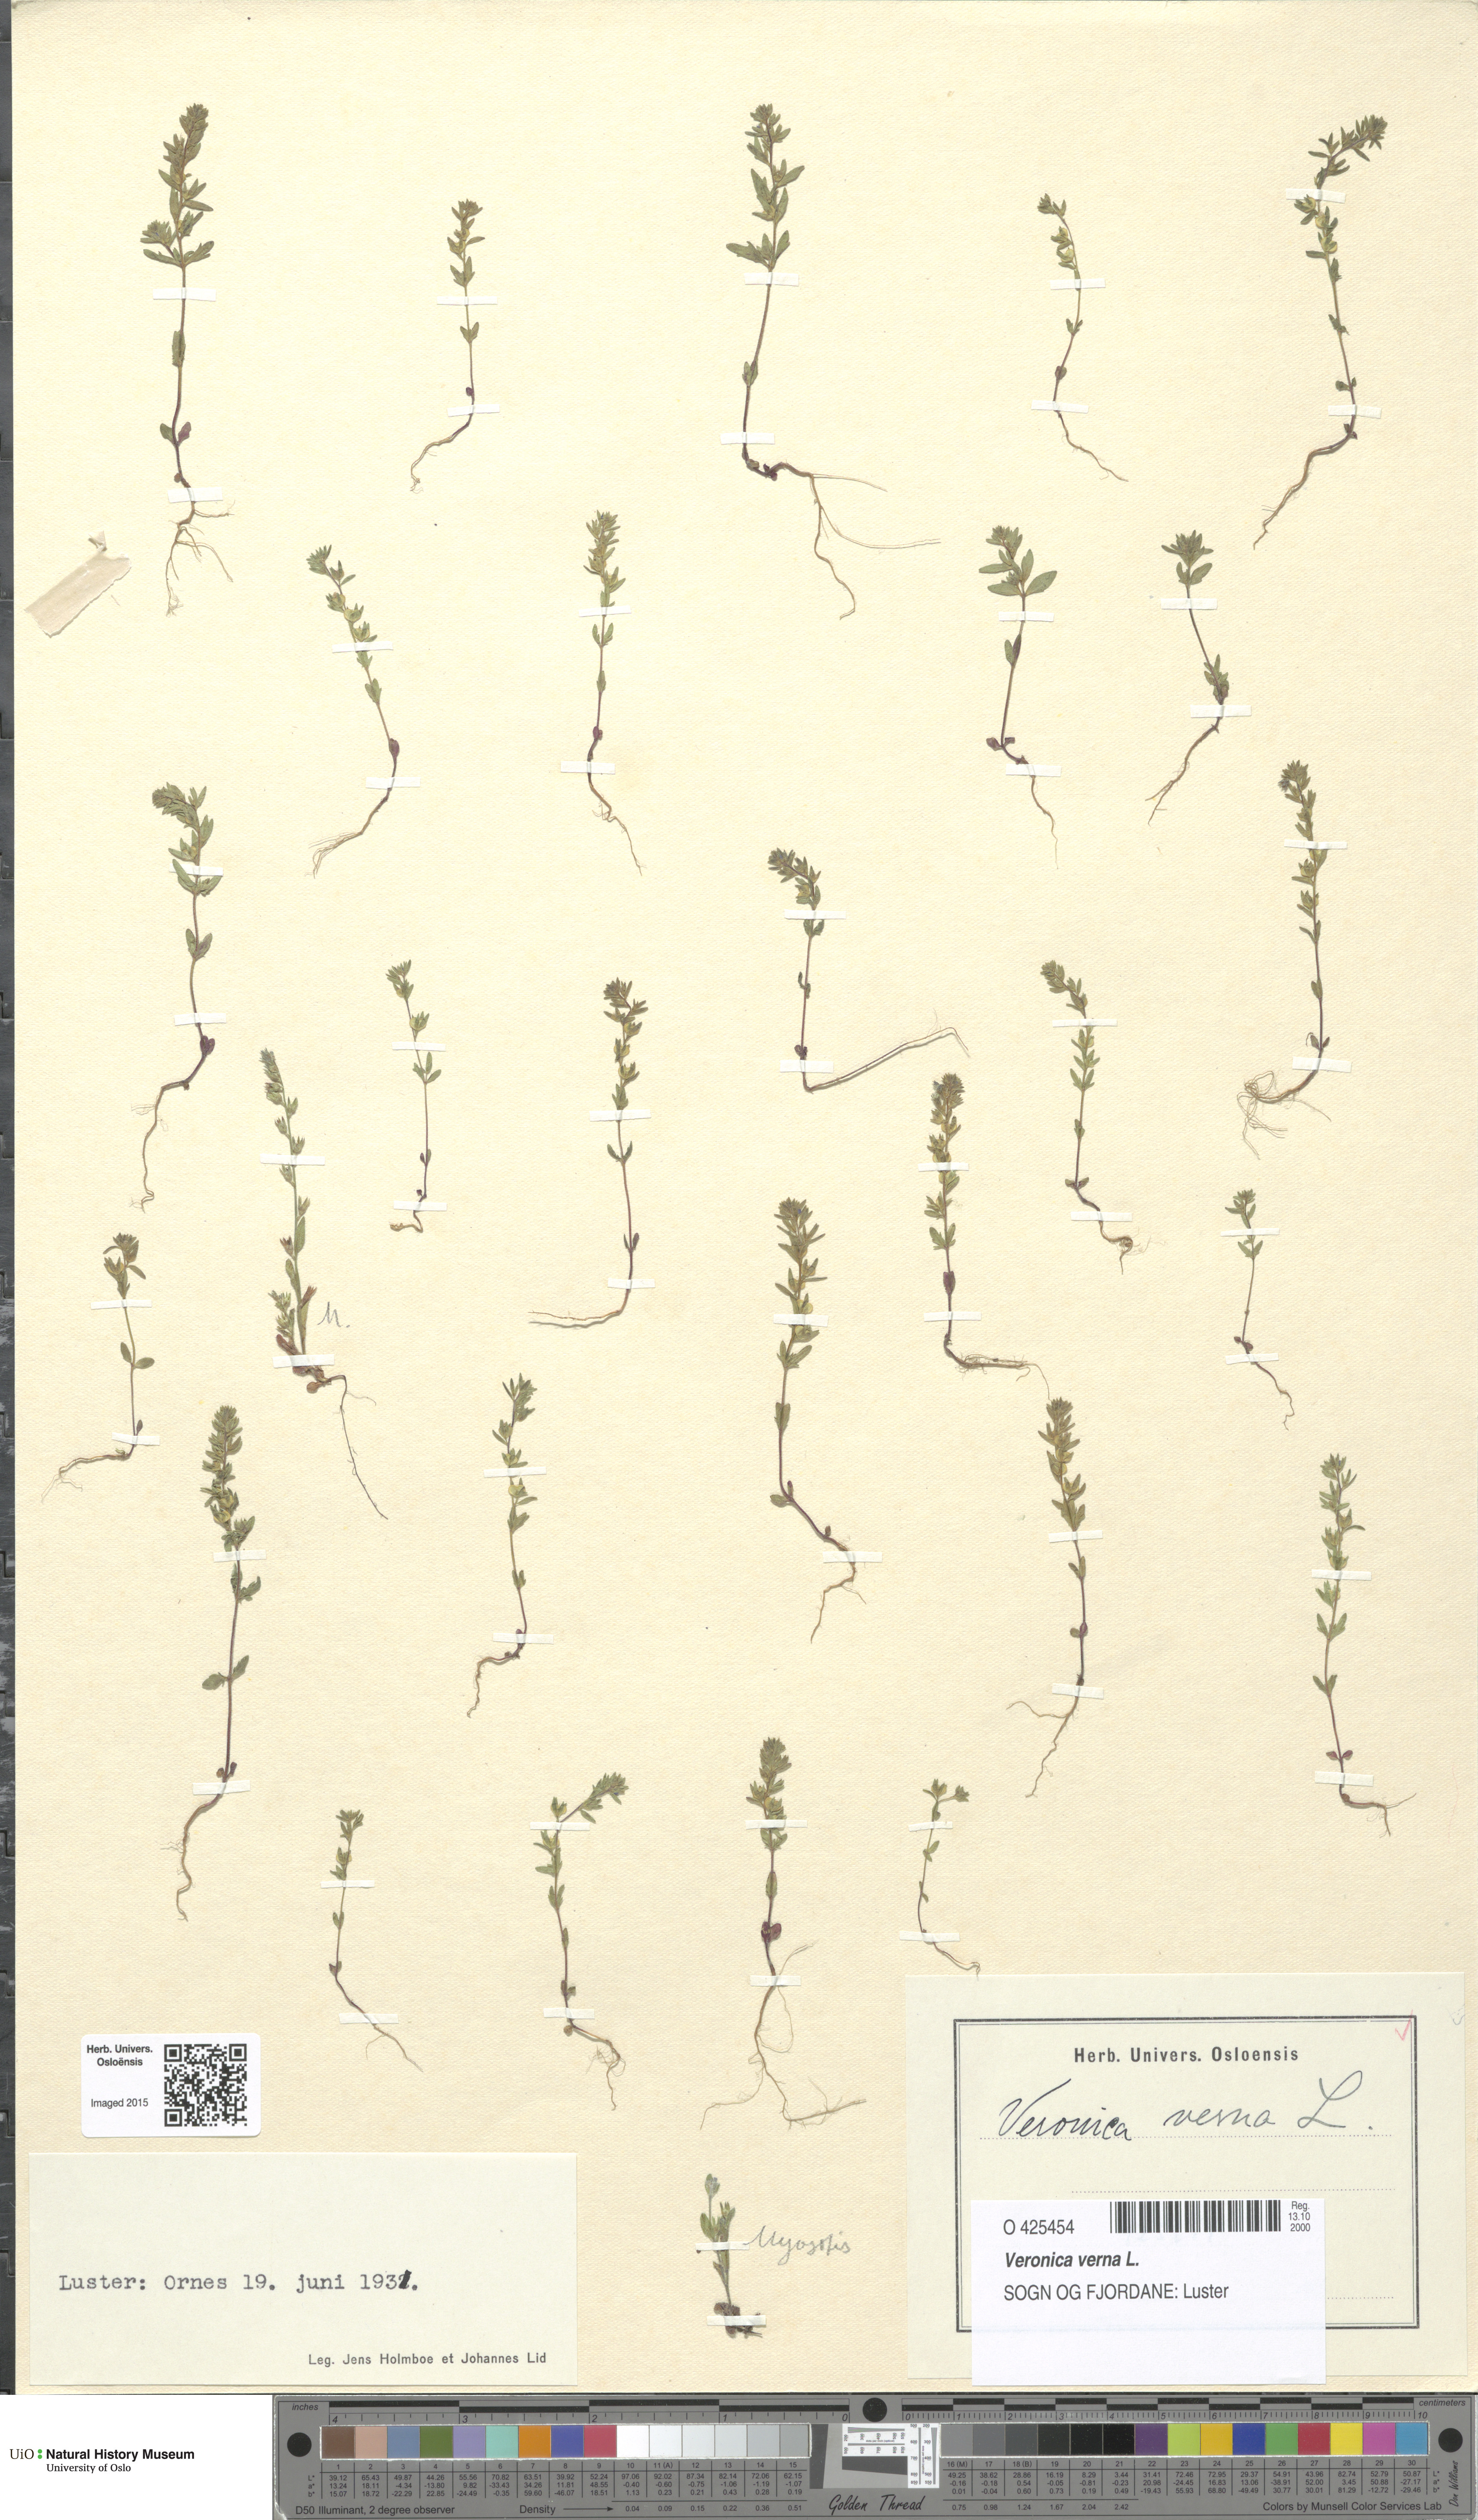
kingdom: Plantae
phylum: Tracheophyta
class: Magnoliopsida
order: Lamiales
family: Plantaginaceae
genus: Veronica
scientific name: Veronica verna
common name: Spring speedwell
